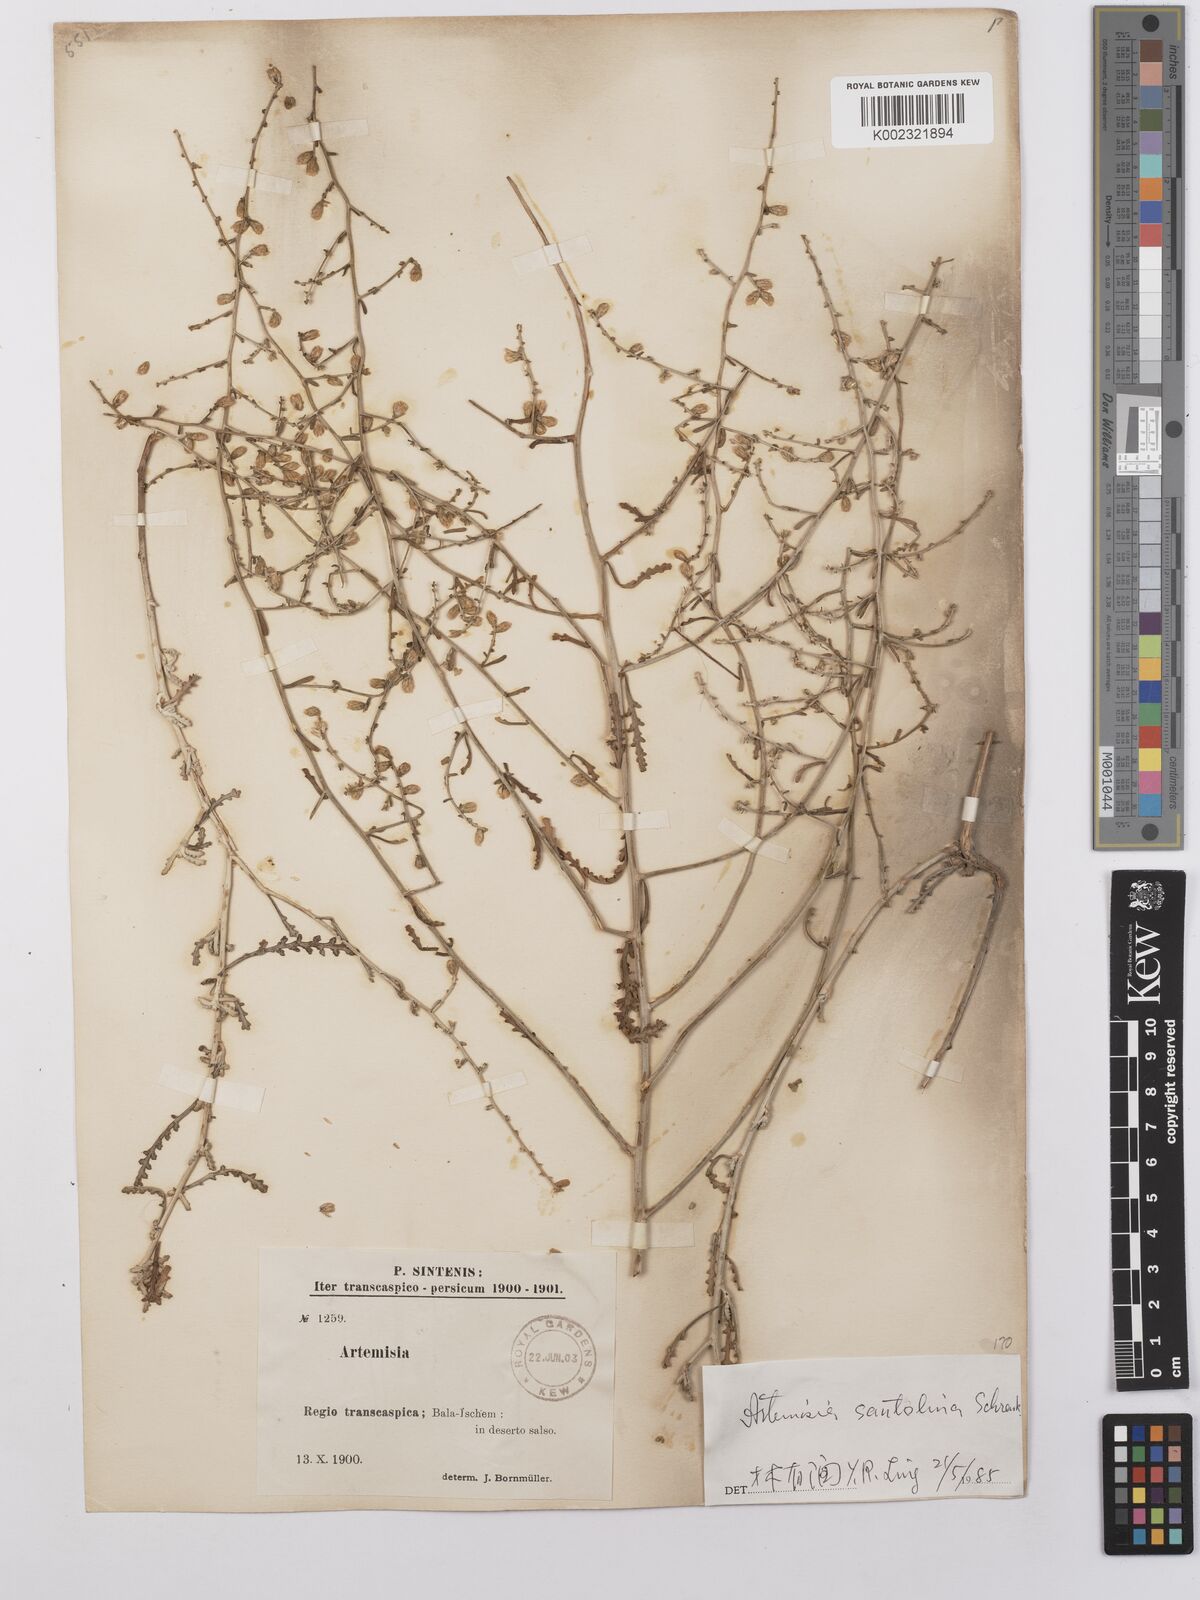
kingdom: Plantae
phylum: Tracheophyta
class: Magnoliopsida
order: Asterales
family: Asteraceae
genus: Artemisia
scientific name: Artemisia santolina
